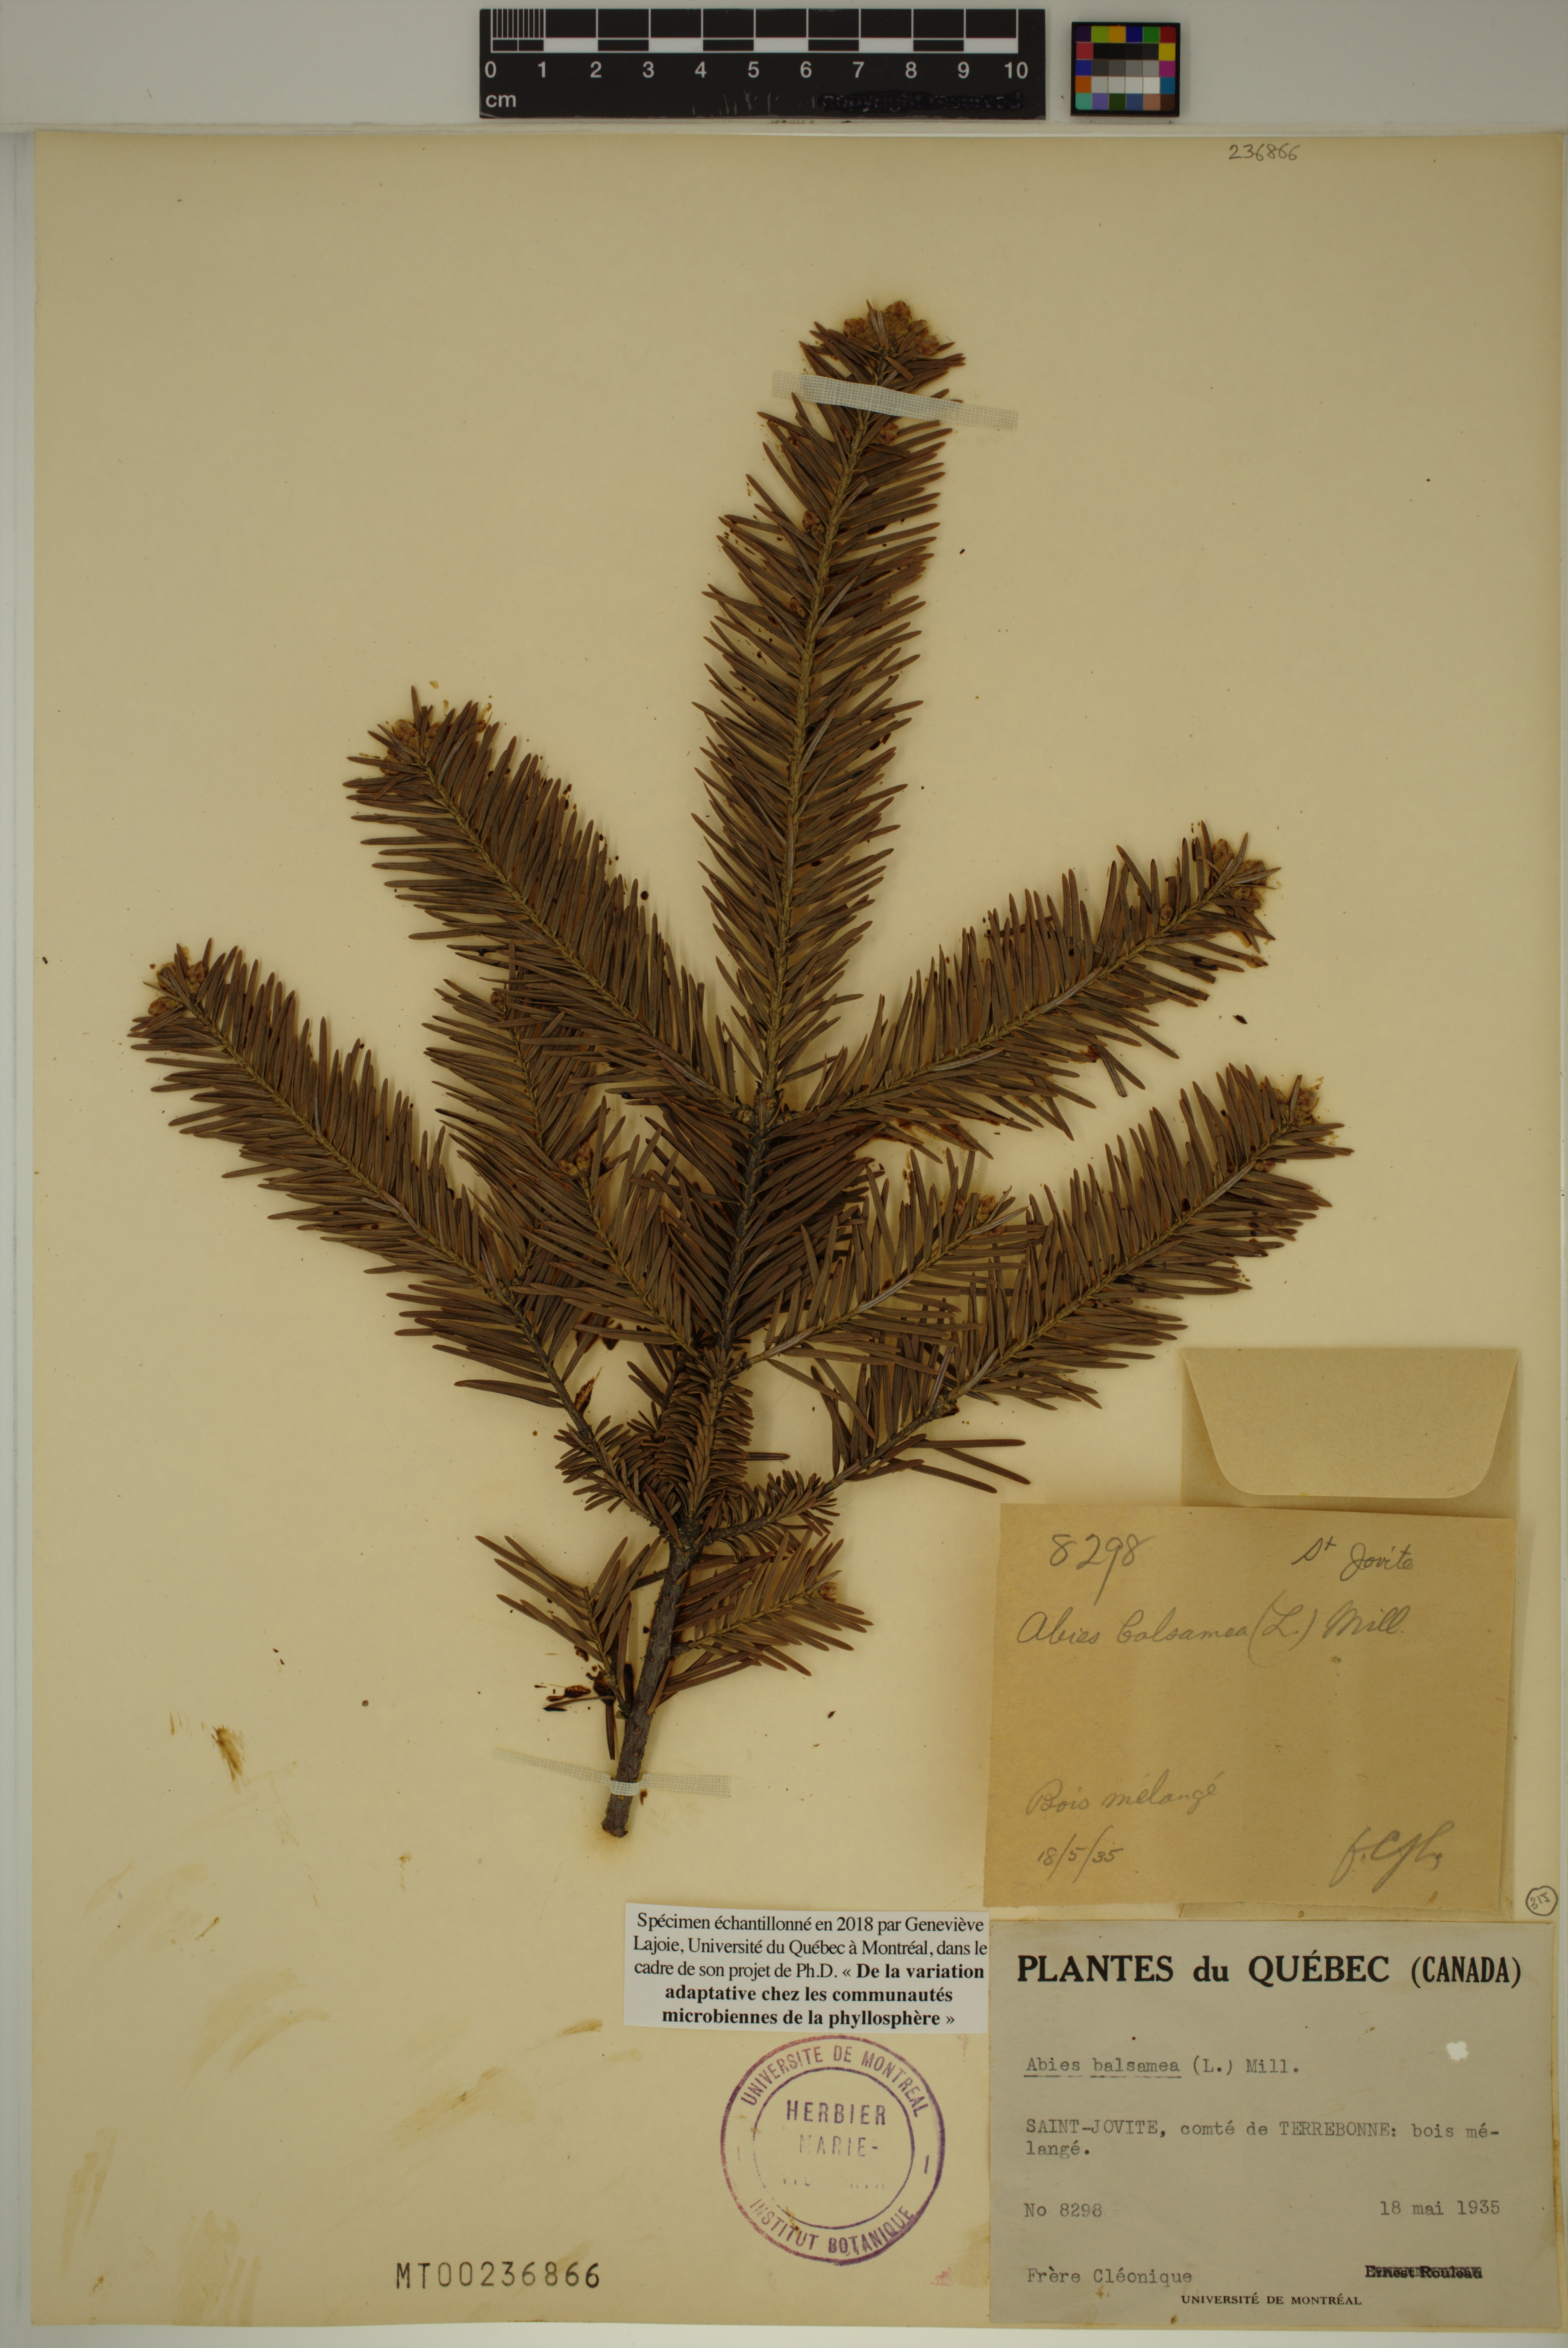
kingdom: Plantae
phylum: Tracheophyta
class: Pinopsida
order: Pinales
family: Pinaceae
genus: Abies
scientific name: Abies balsamea
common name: Balsam fir
